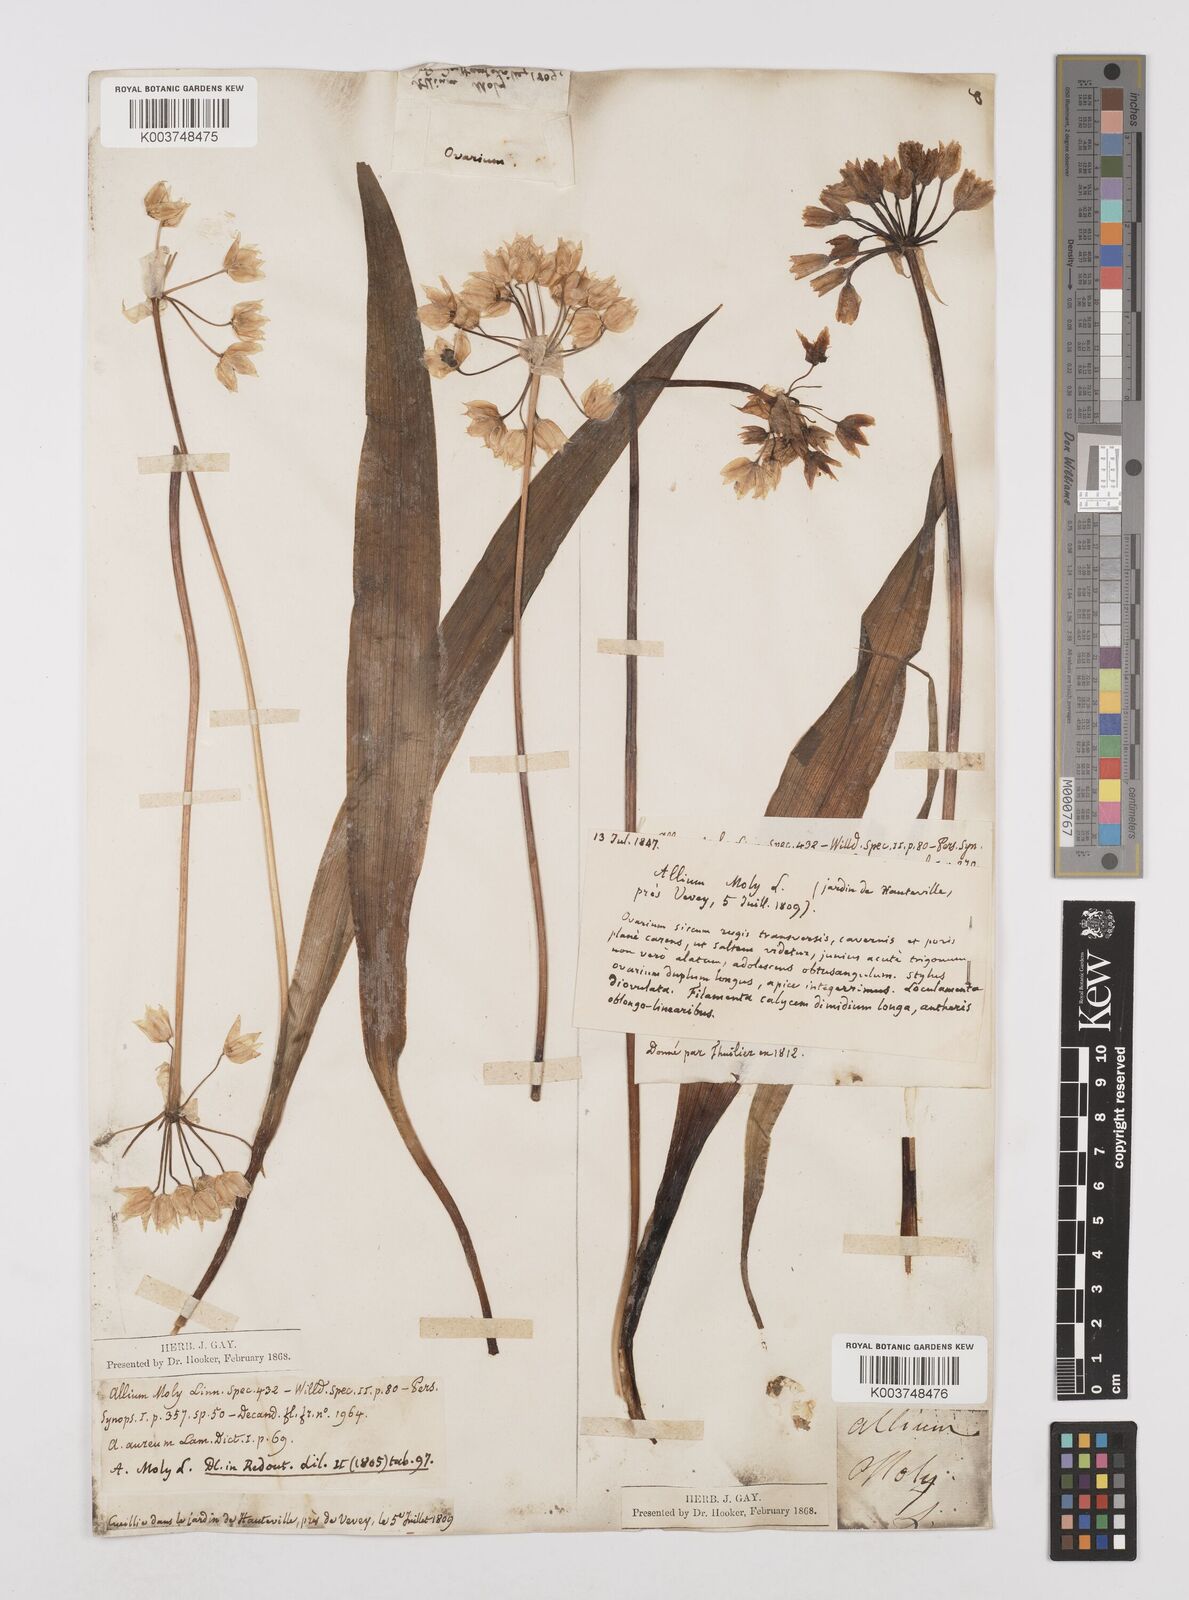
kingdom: Plantae
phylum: Tracheophyta
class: Liliopsida
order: Asparagales
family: Amaryllidaceae
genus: Allium
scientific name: Allium moly
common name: Yellow garlic
